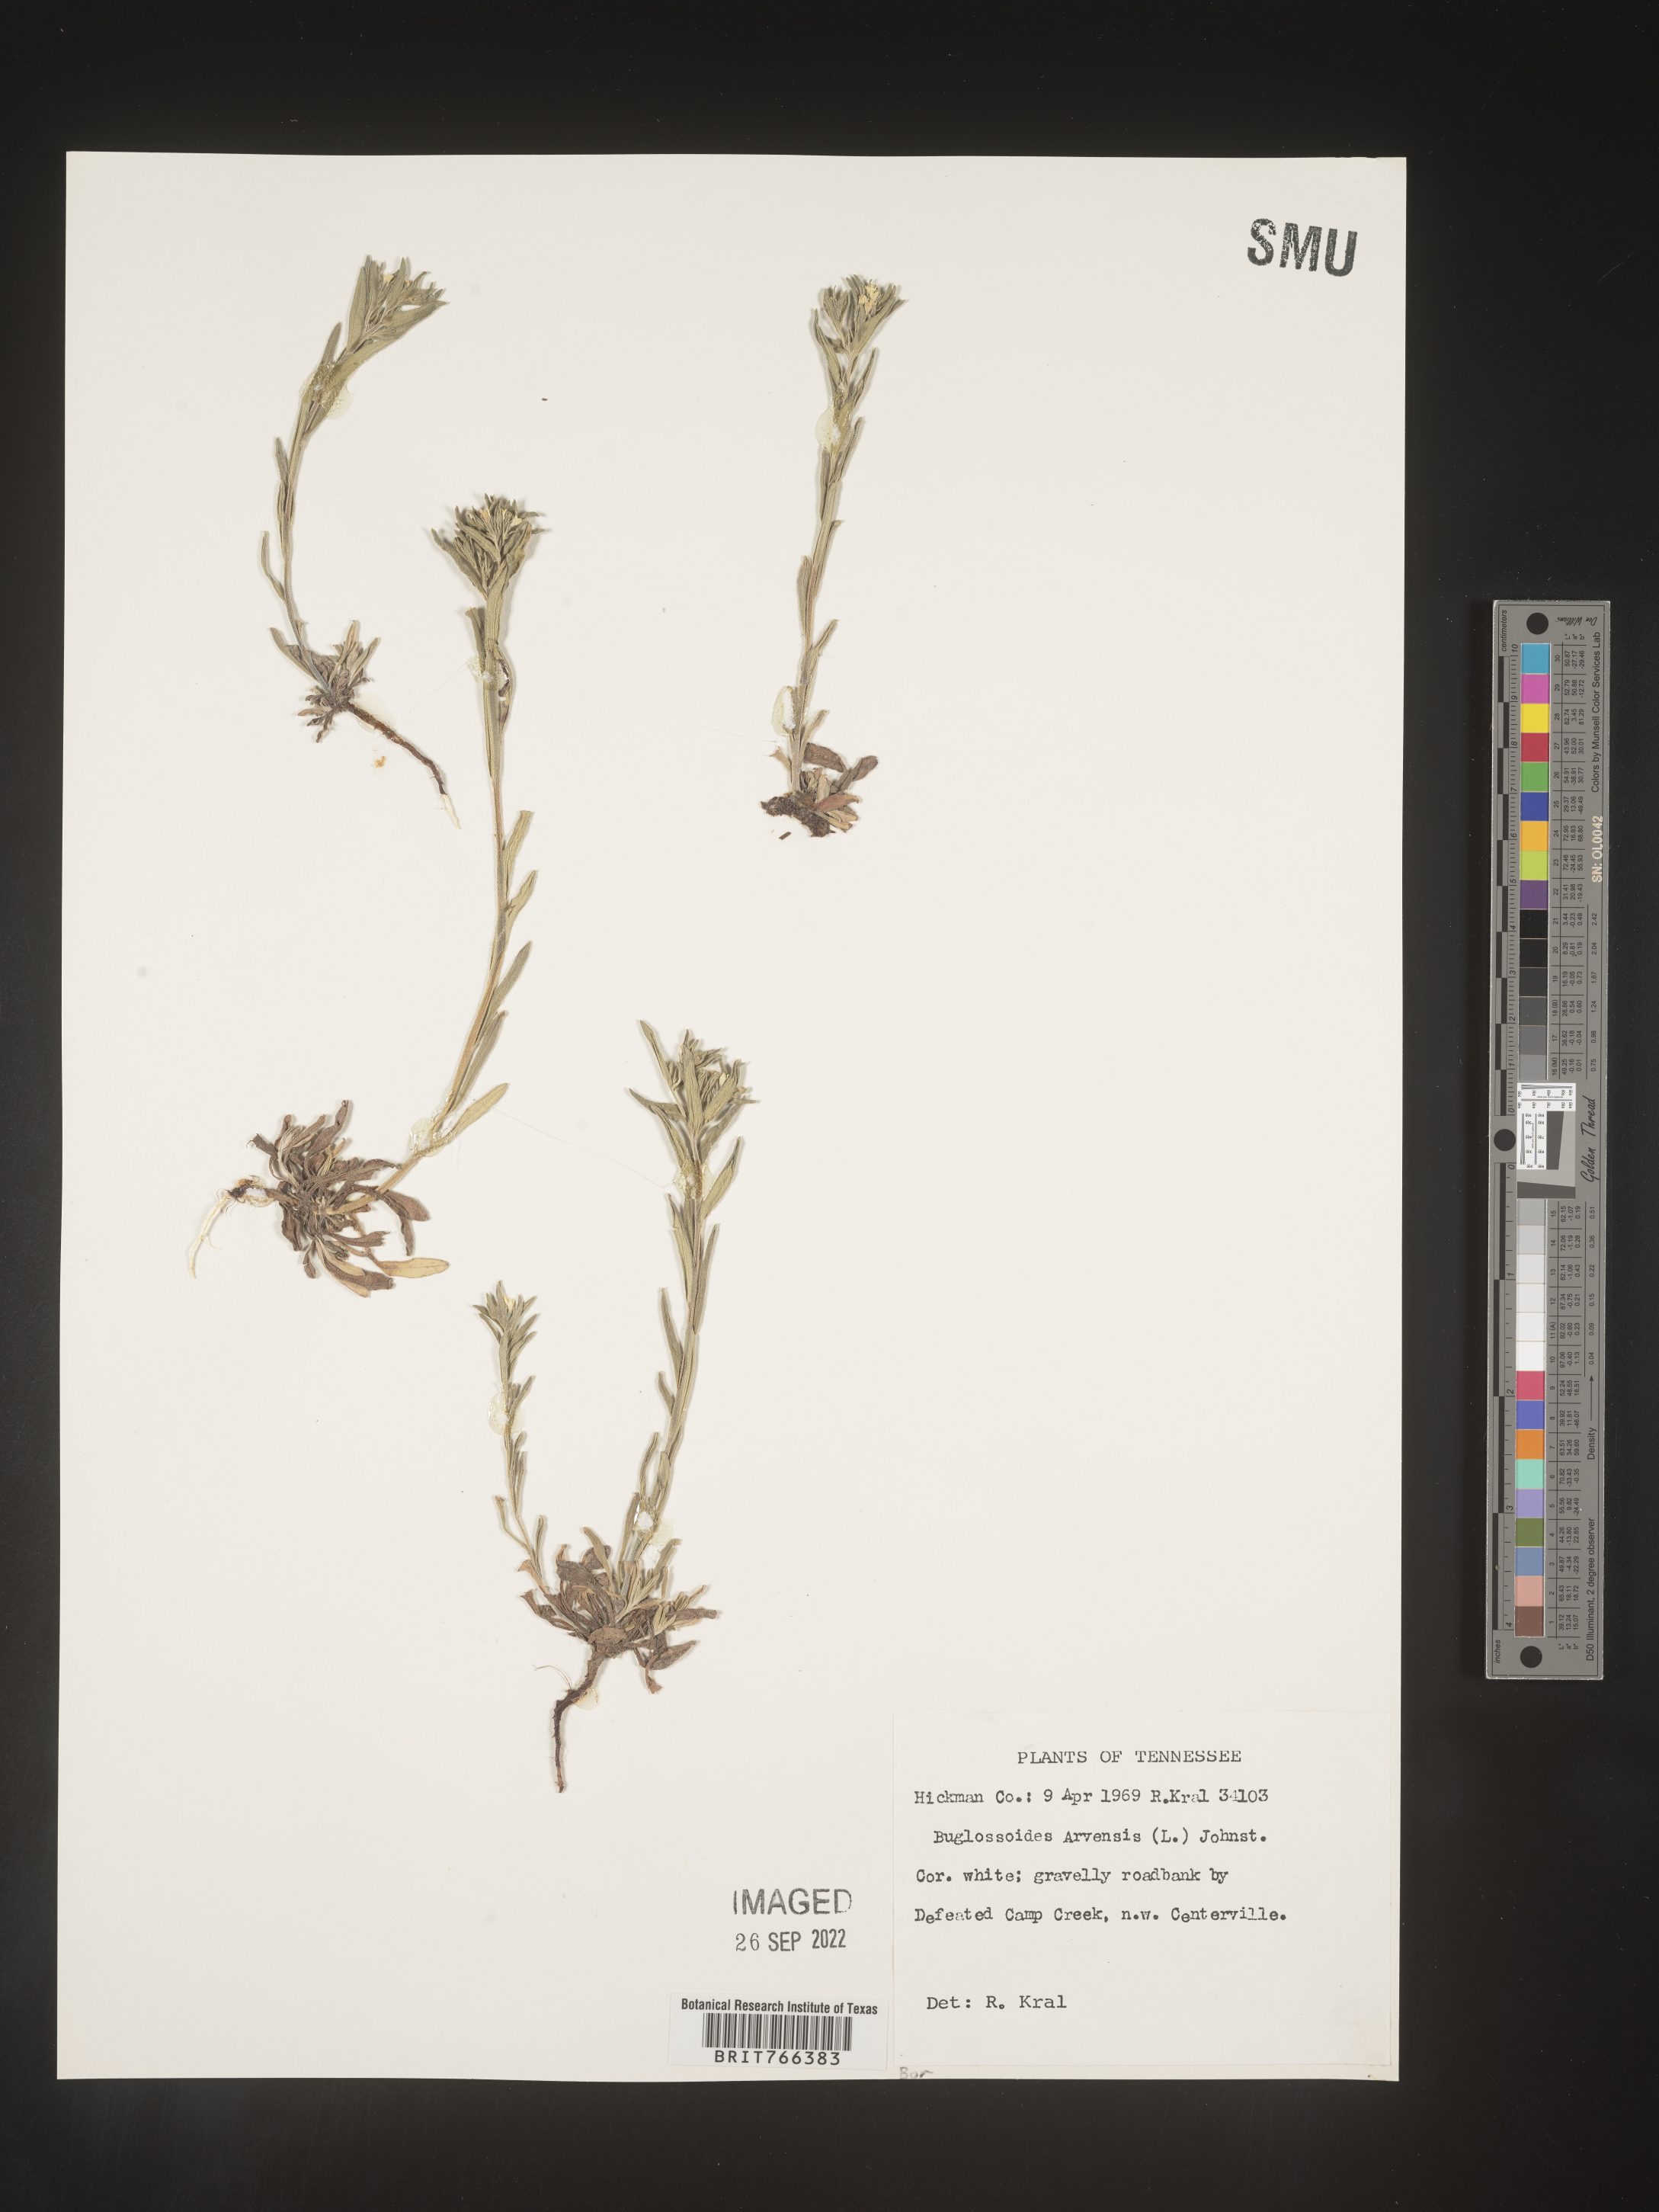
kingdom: Plantae
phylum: Tracheophyta
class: Magnoliopsida
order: Boraginales
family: Boraginaceae
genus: Buglossoides
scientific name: Buglossoides arvensis
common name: Corn gromwell
